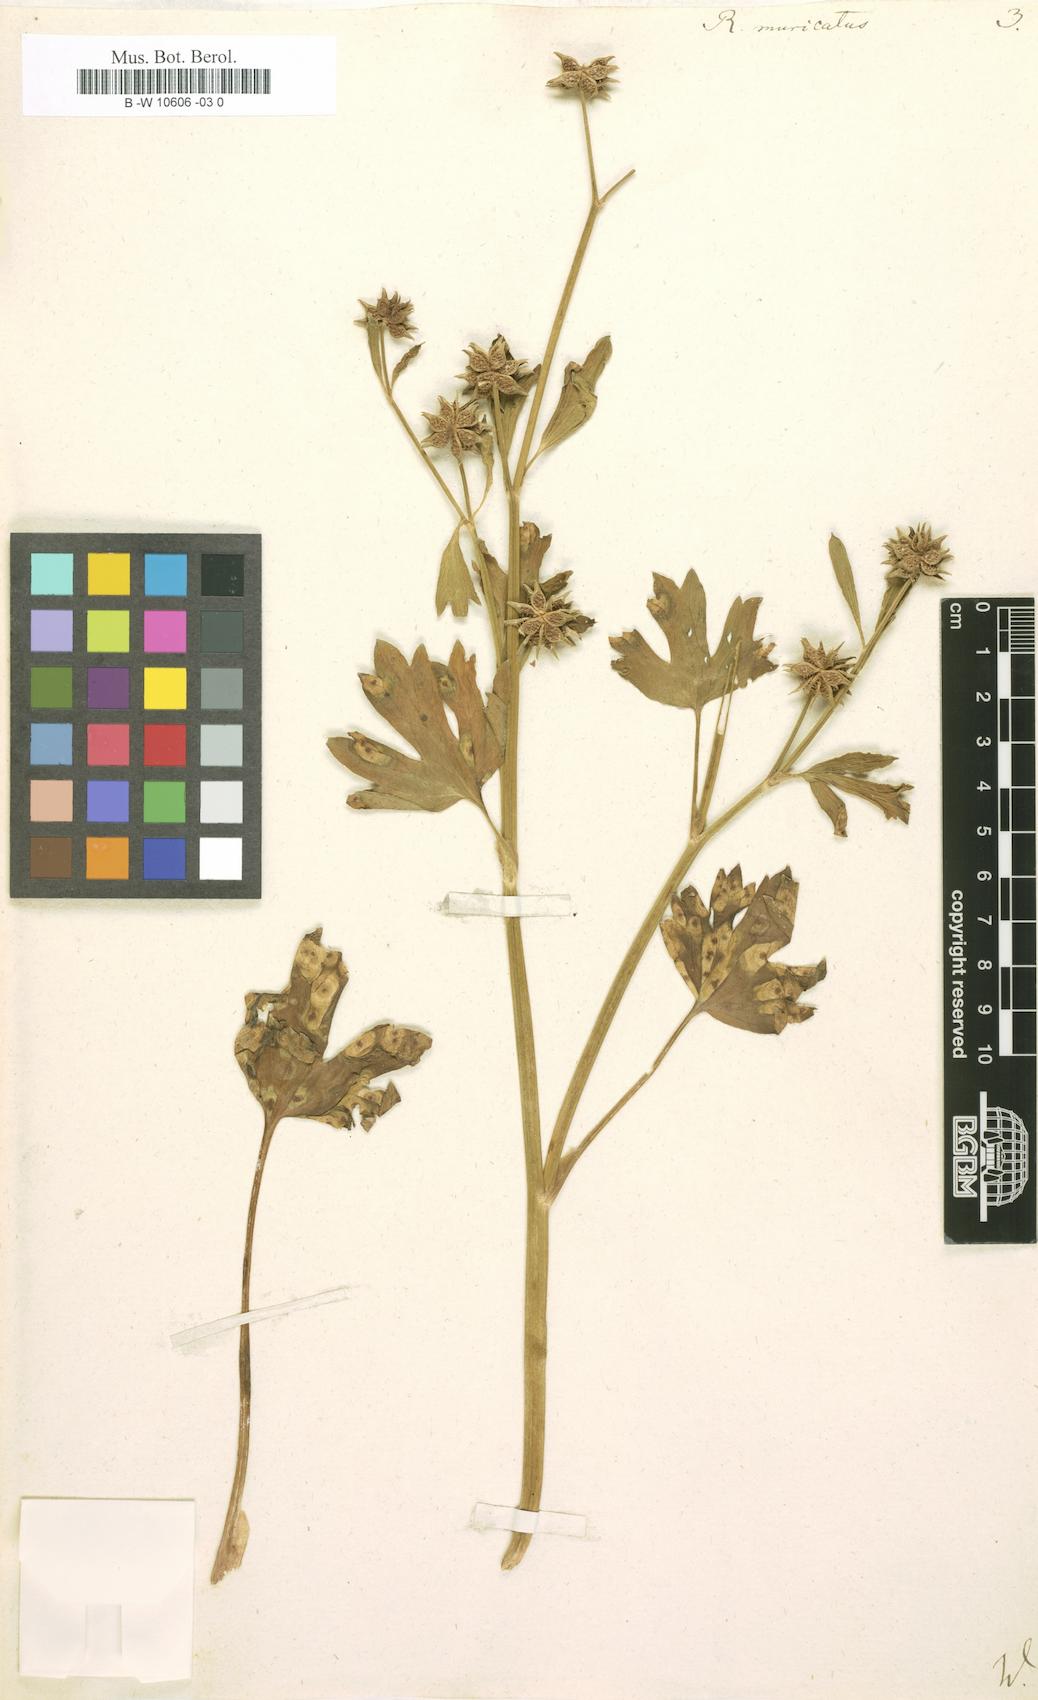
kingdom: Plantae
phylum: Tracheophyta
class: Magnoliopsida
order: Ranunculales
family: Ranunculaceae
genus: Ranunculus
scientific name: Ranunculus muricatus
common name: Rough-fruited buttercup
